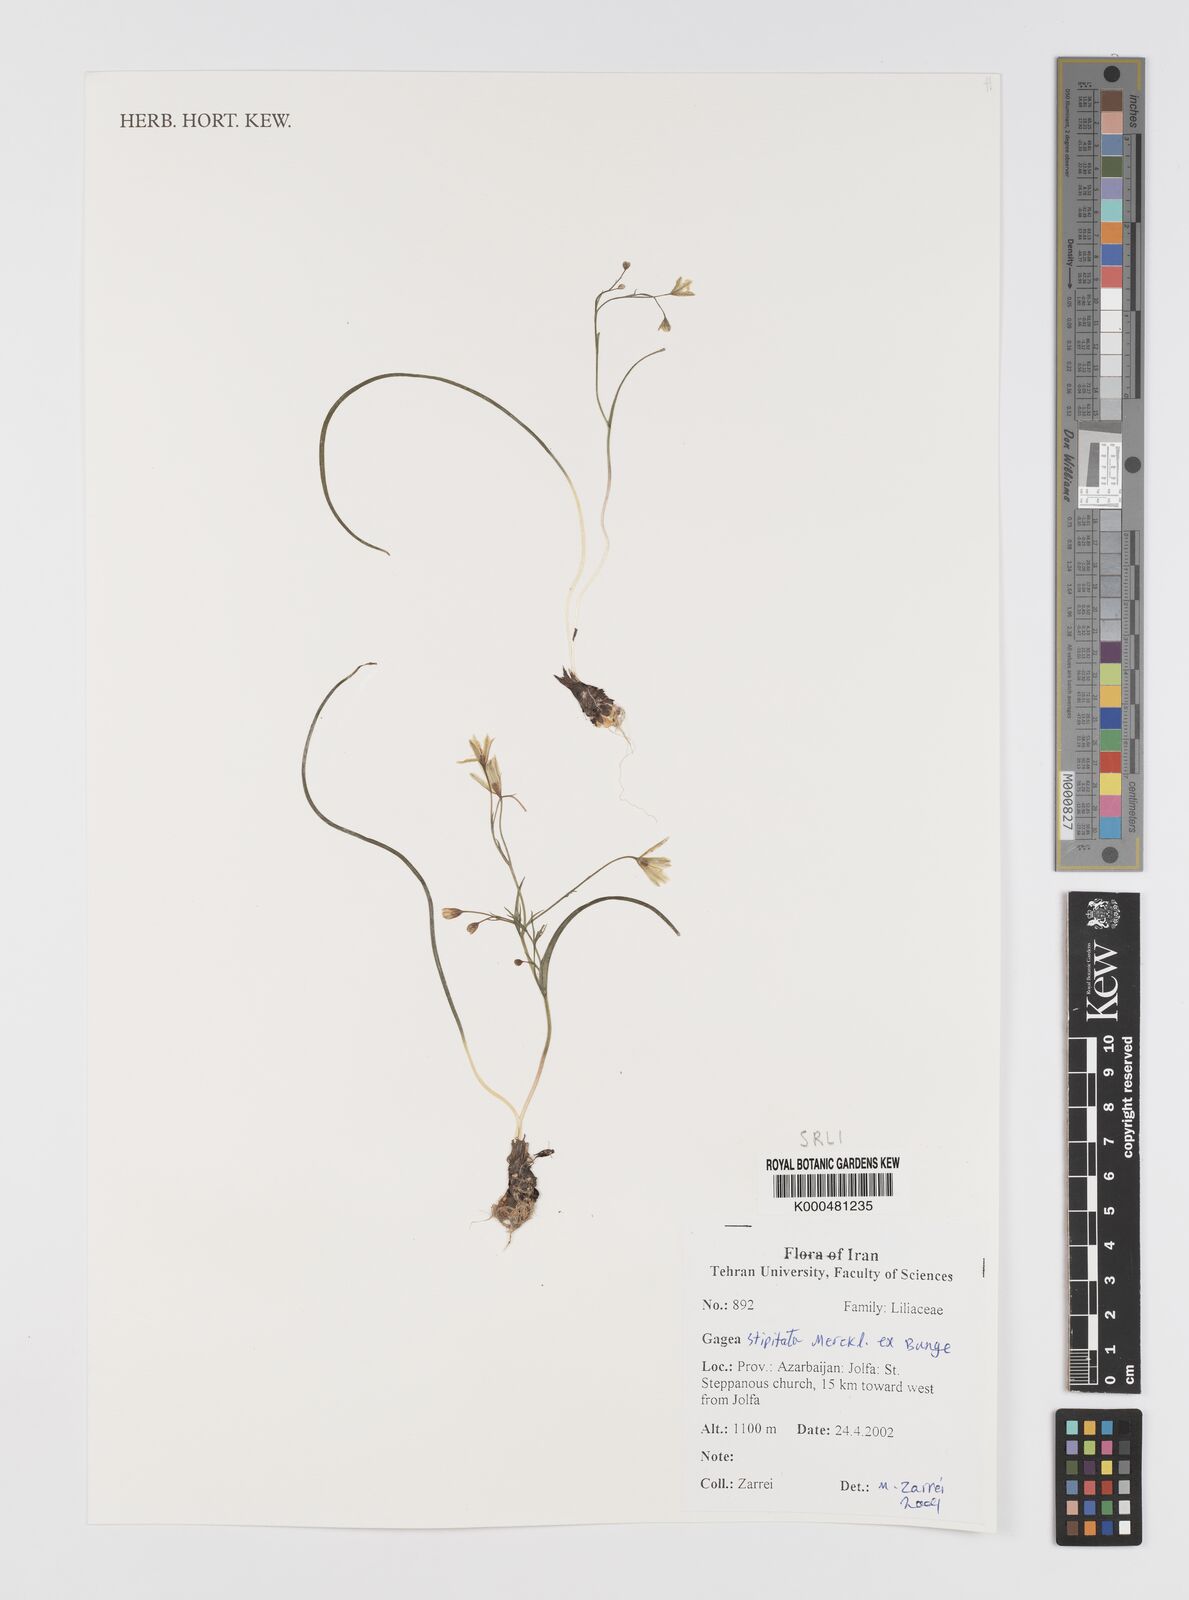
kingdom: Plantae
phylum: Tracheophyta
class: Liliopsida
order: Liliales
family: Liliaceae
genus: Gagea
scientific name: Gagea kunawurensis
